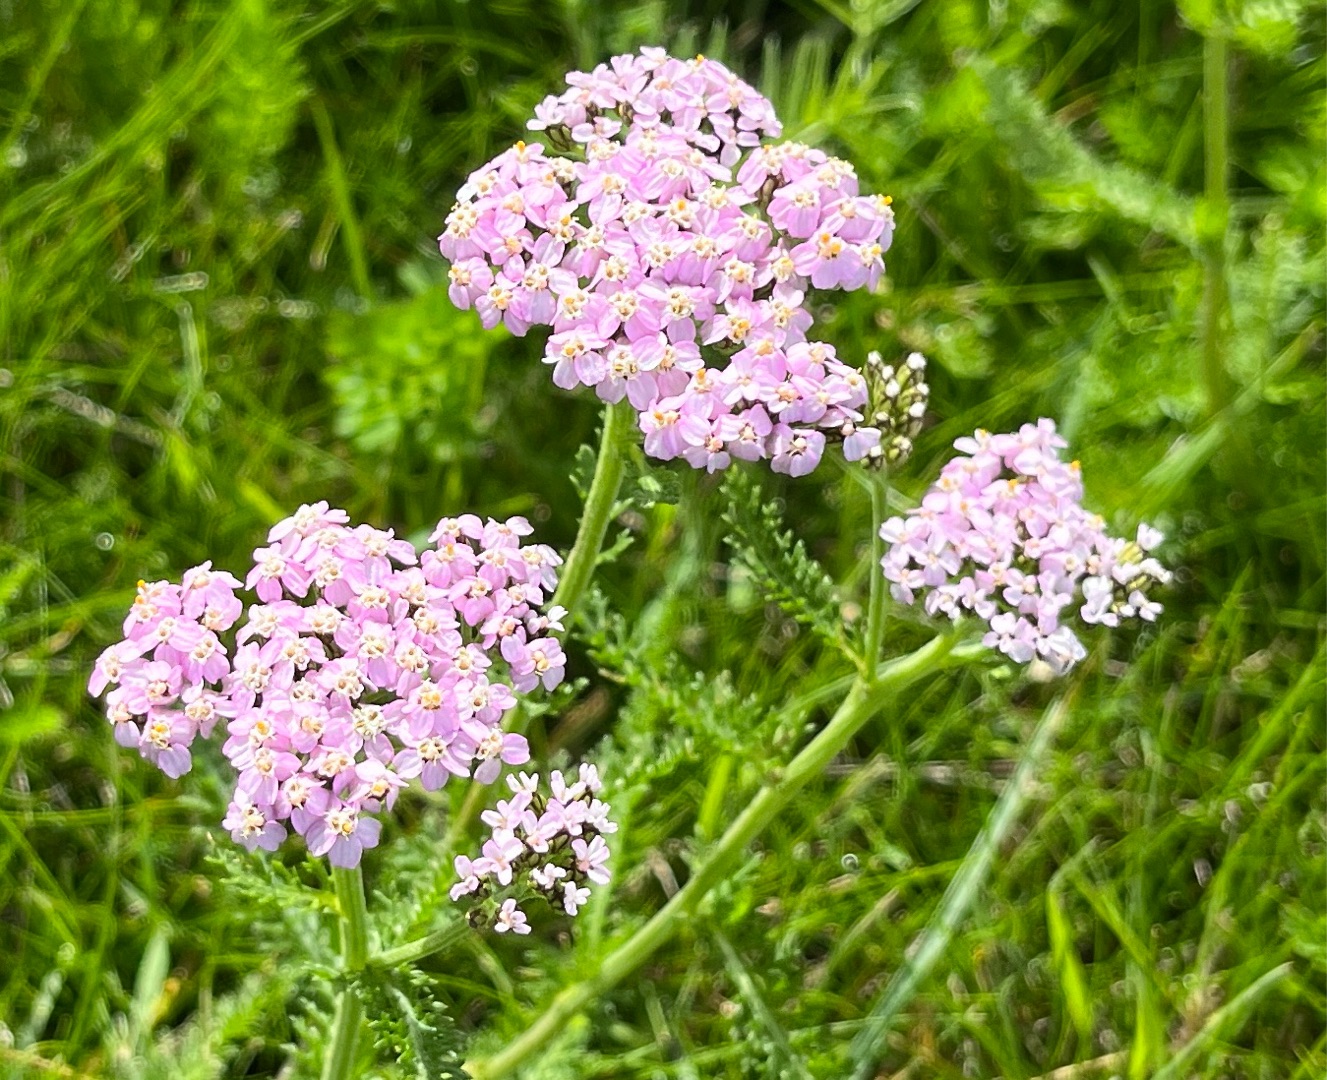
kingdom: Plantae
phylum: Tracheophyta
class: Magnoliopsida
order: Asterales
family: Asteraceae
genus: Achillea
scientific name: Achillea millefolium
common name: Almindelig røllike
